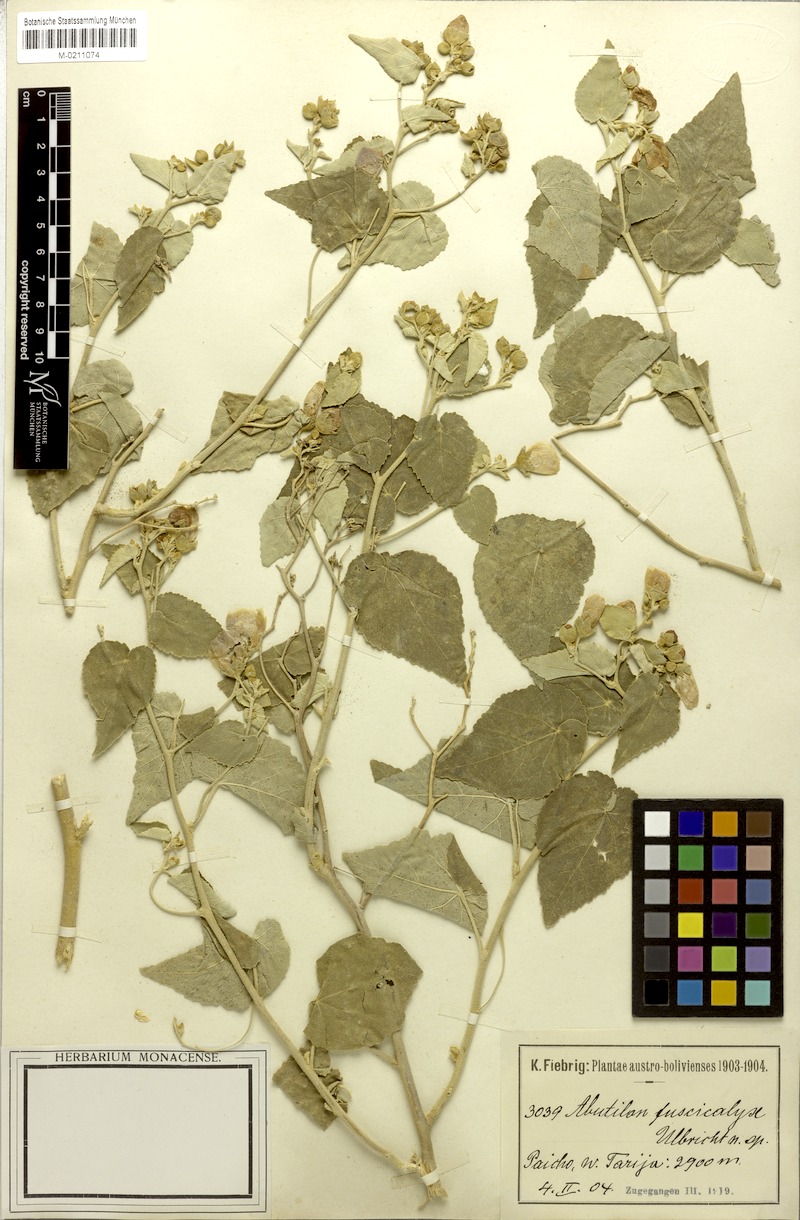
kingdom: Plantae
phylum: Tracheophyta
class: Magnoliopsida
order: Malvales
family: Malvaceae
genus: Abutilon
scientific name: Abutilon fuscicalyx
